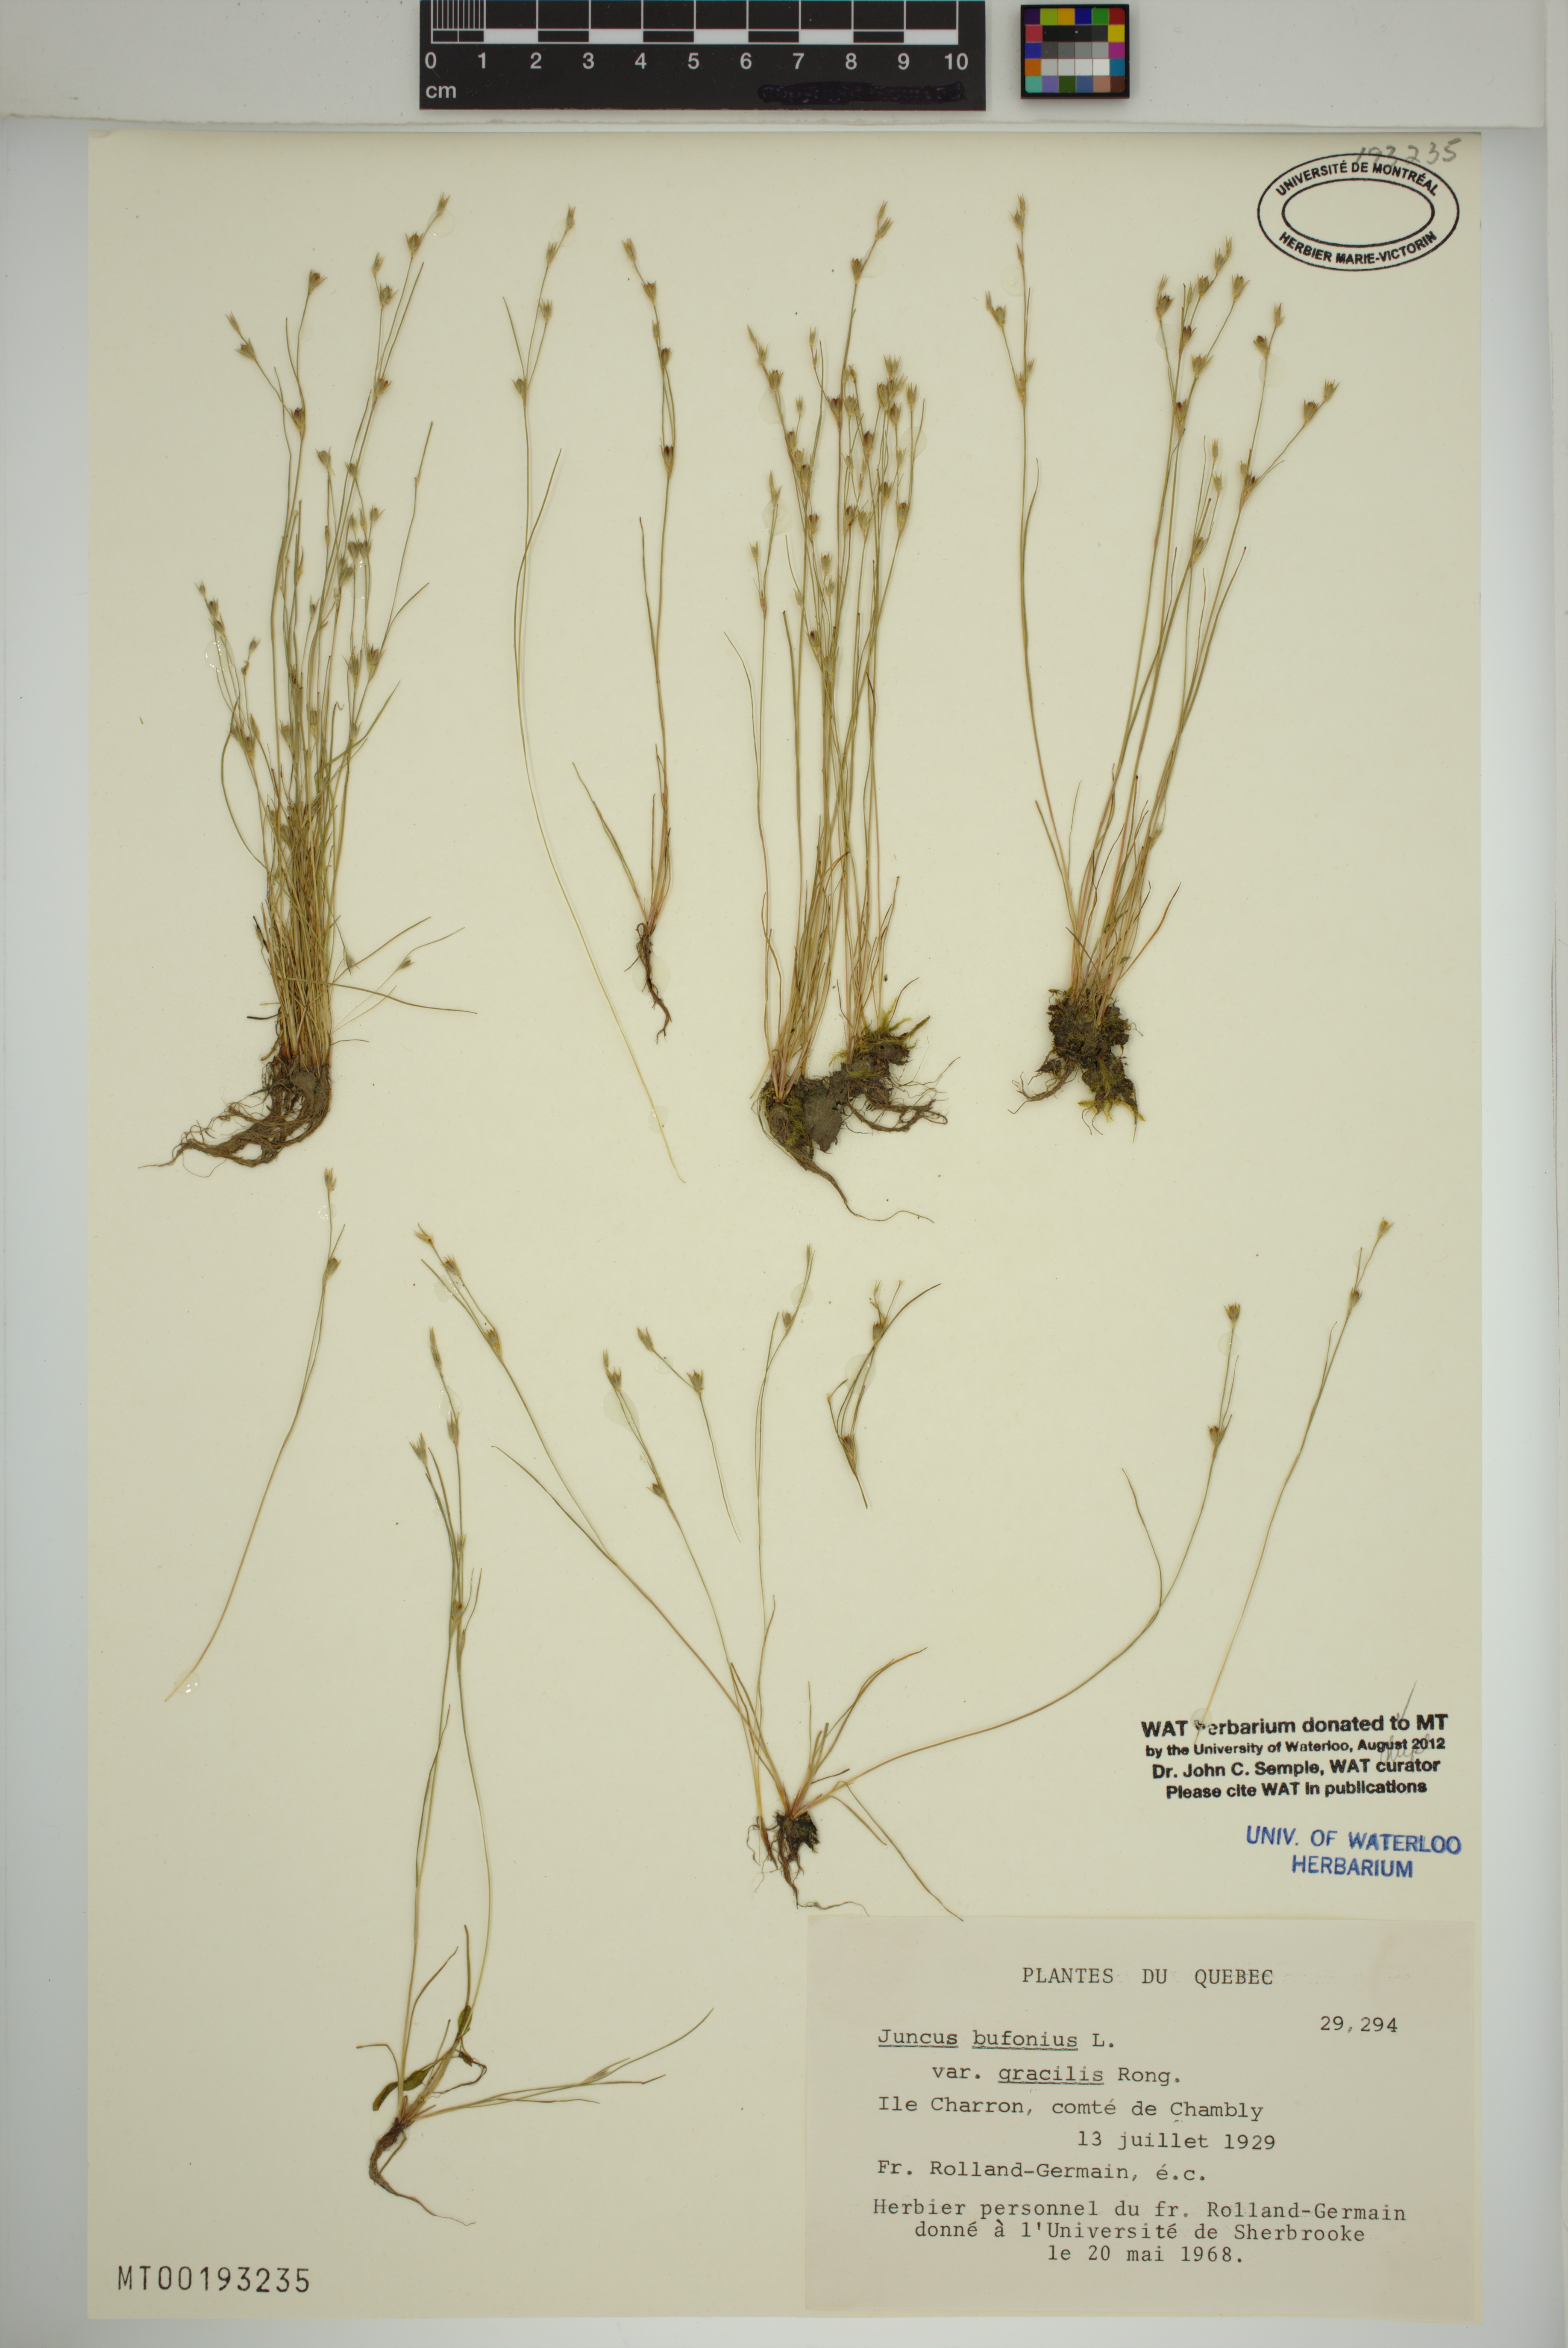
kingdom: Plantae
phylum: Tracheophyta
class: Liliopsida
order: Poales
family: Juncaceae
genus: Juncus
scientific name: Juncus bufonius
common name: Toad rush
